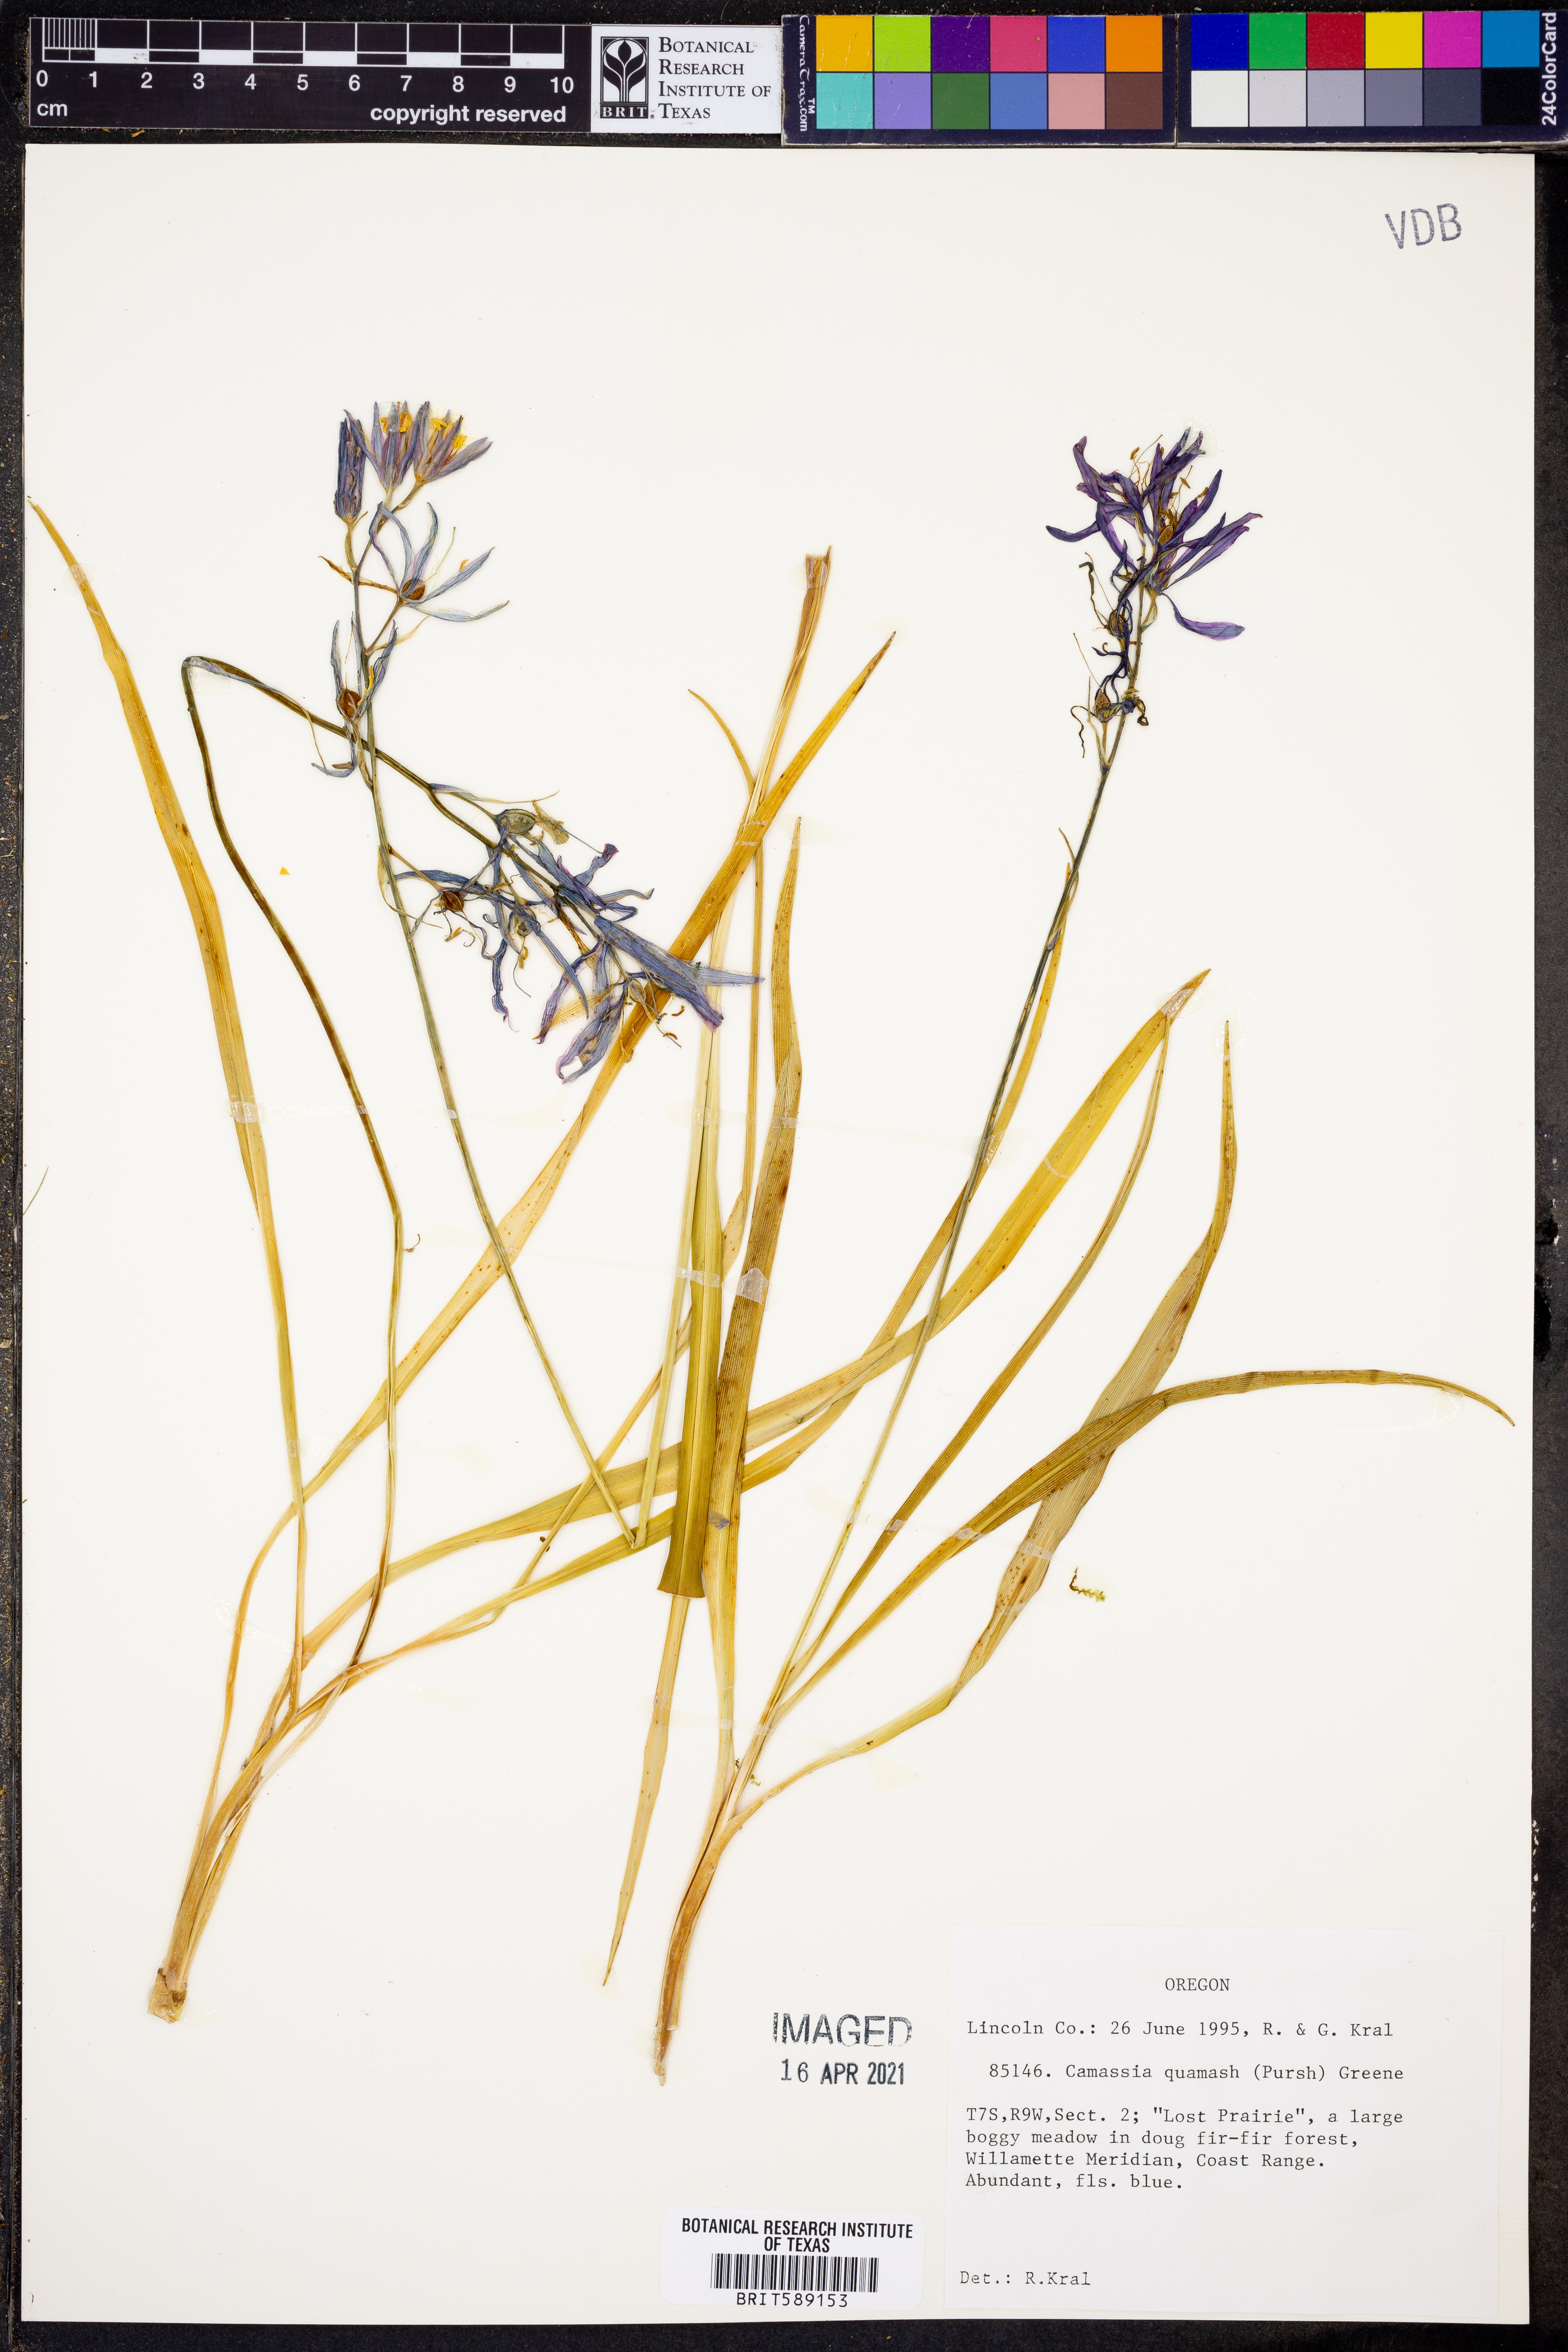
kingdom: Plantae
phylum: Tracheophyta
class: Liliopsida
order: Asparagales
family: Asparagaceae
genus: Camassia
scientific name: Camassia quamash
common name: Common camas
